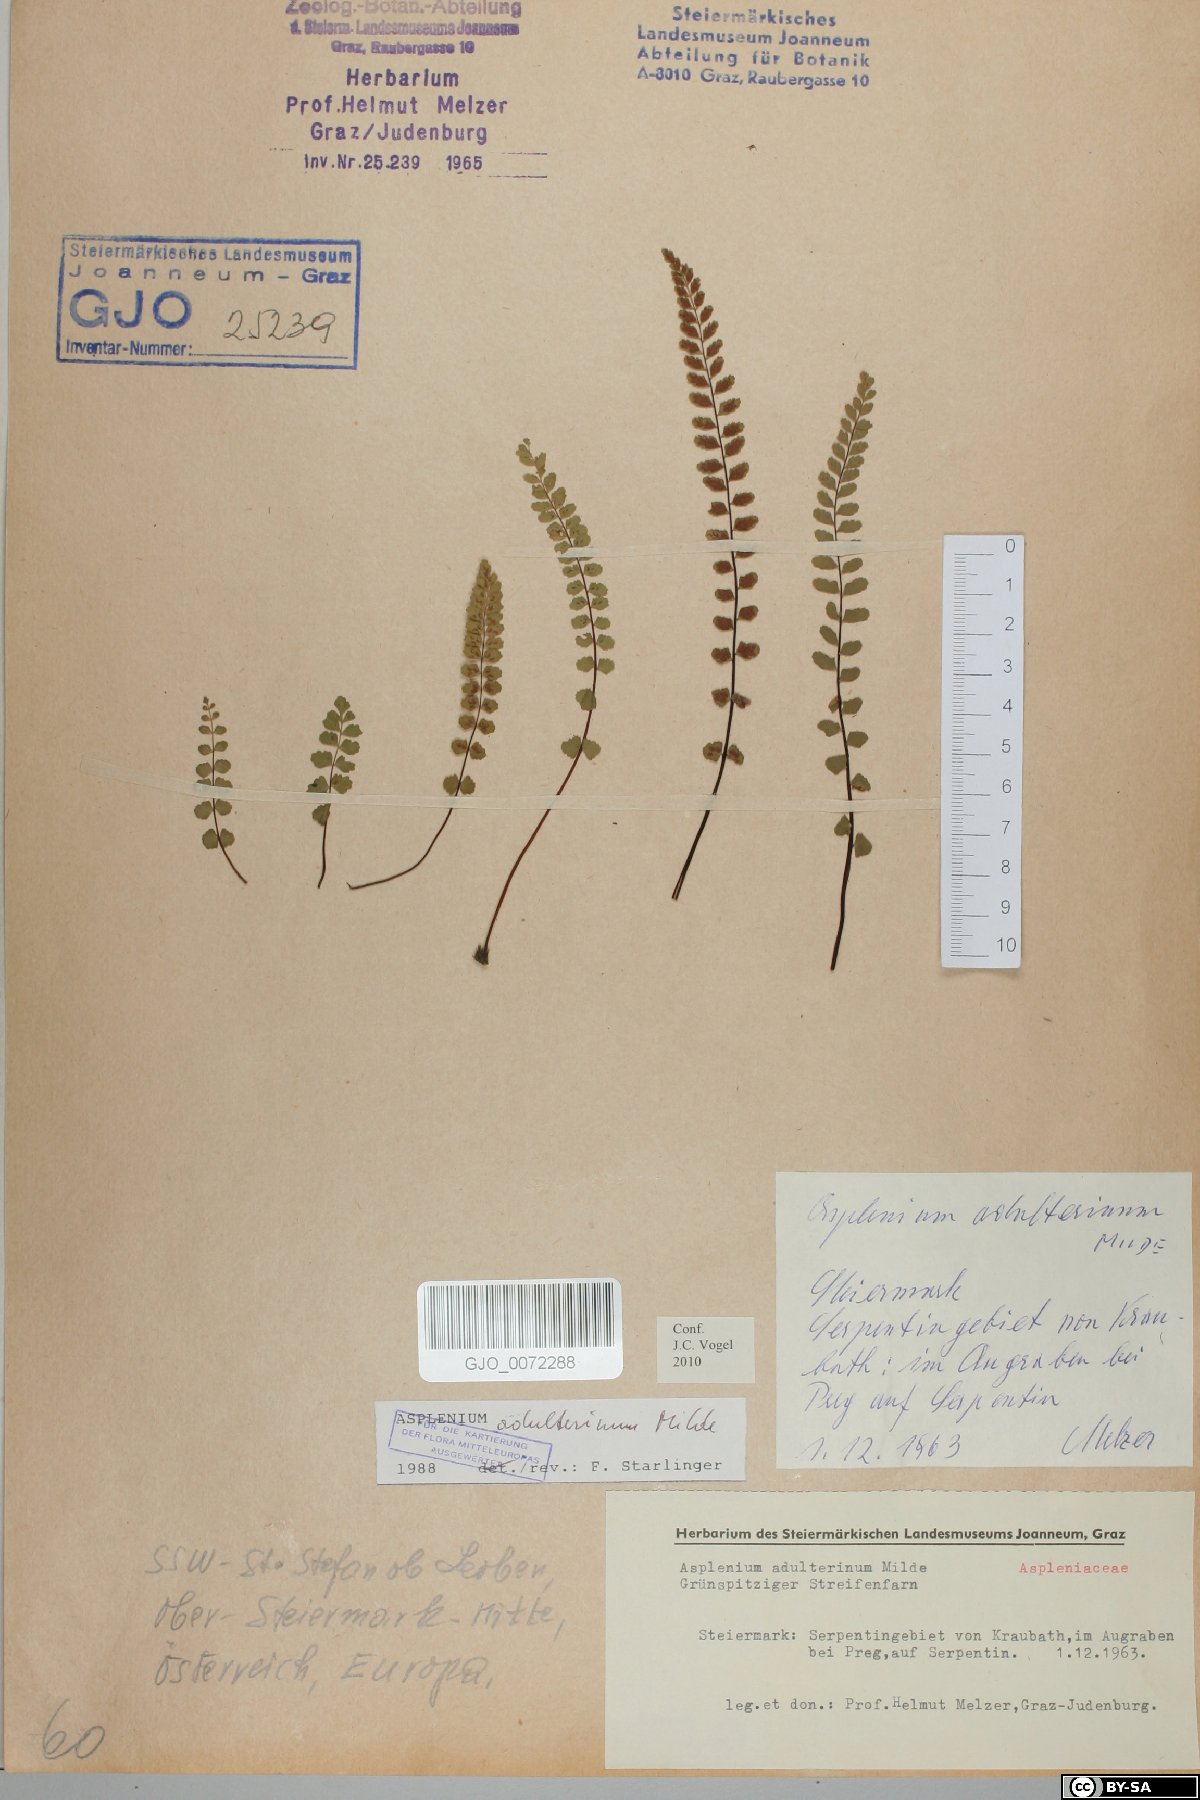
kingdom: Plantae
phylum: Tracheophyta
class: Polypodiopsida
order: Polypodiales
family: Aspleniaceae
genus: Asplenium
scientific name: Asplenium adulterinum
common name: Adulterated spleenwort
